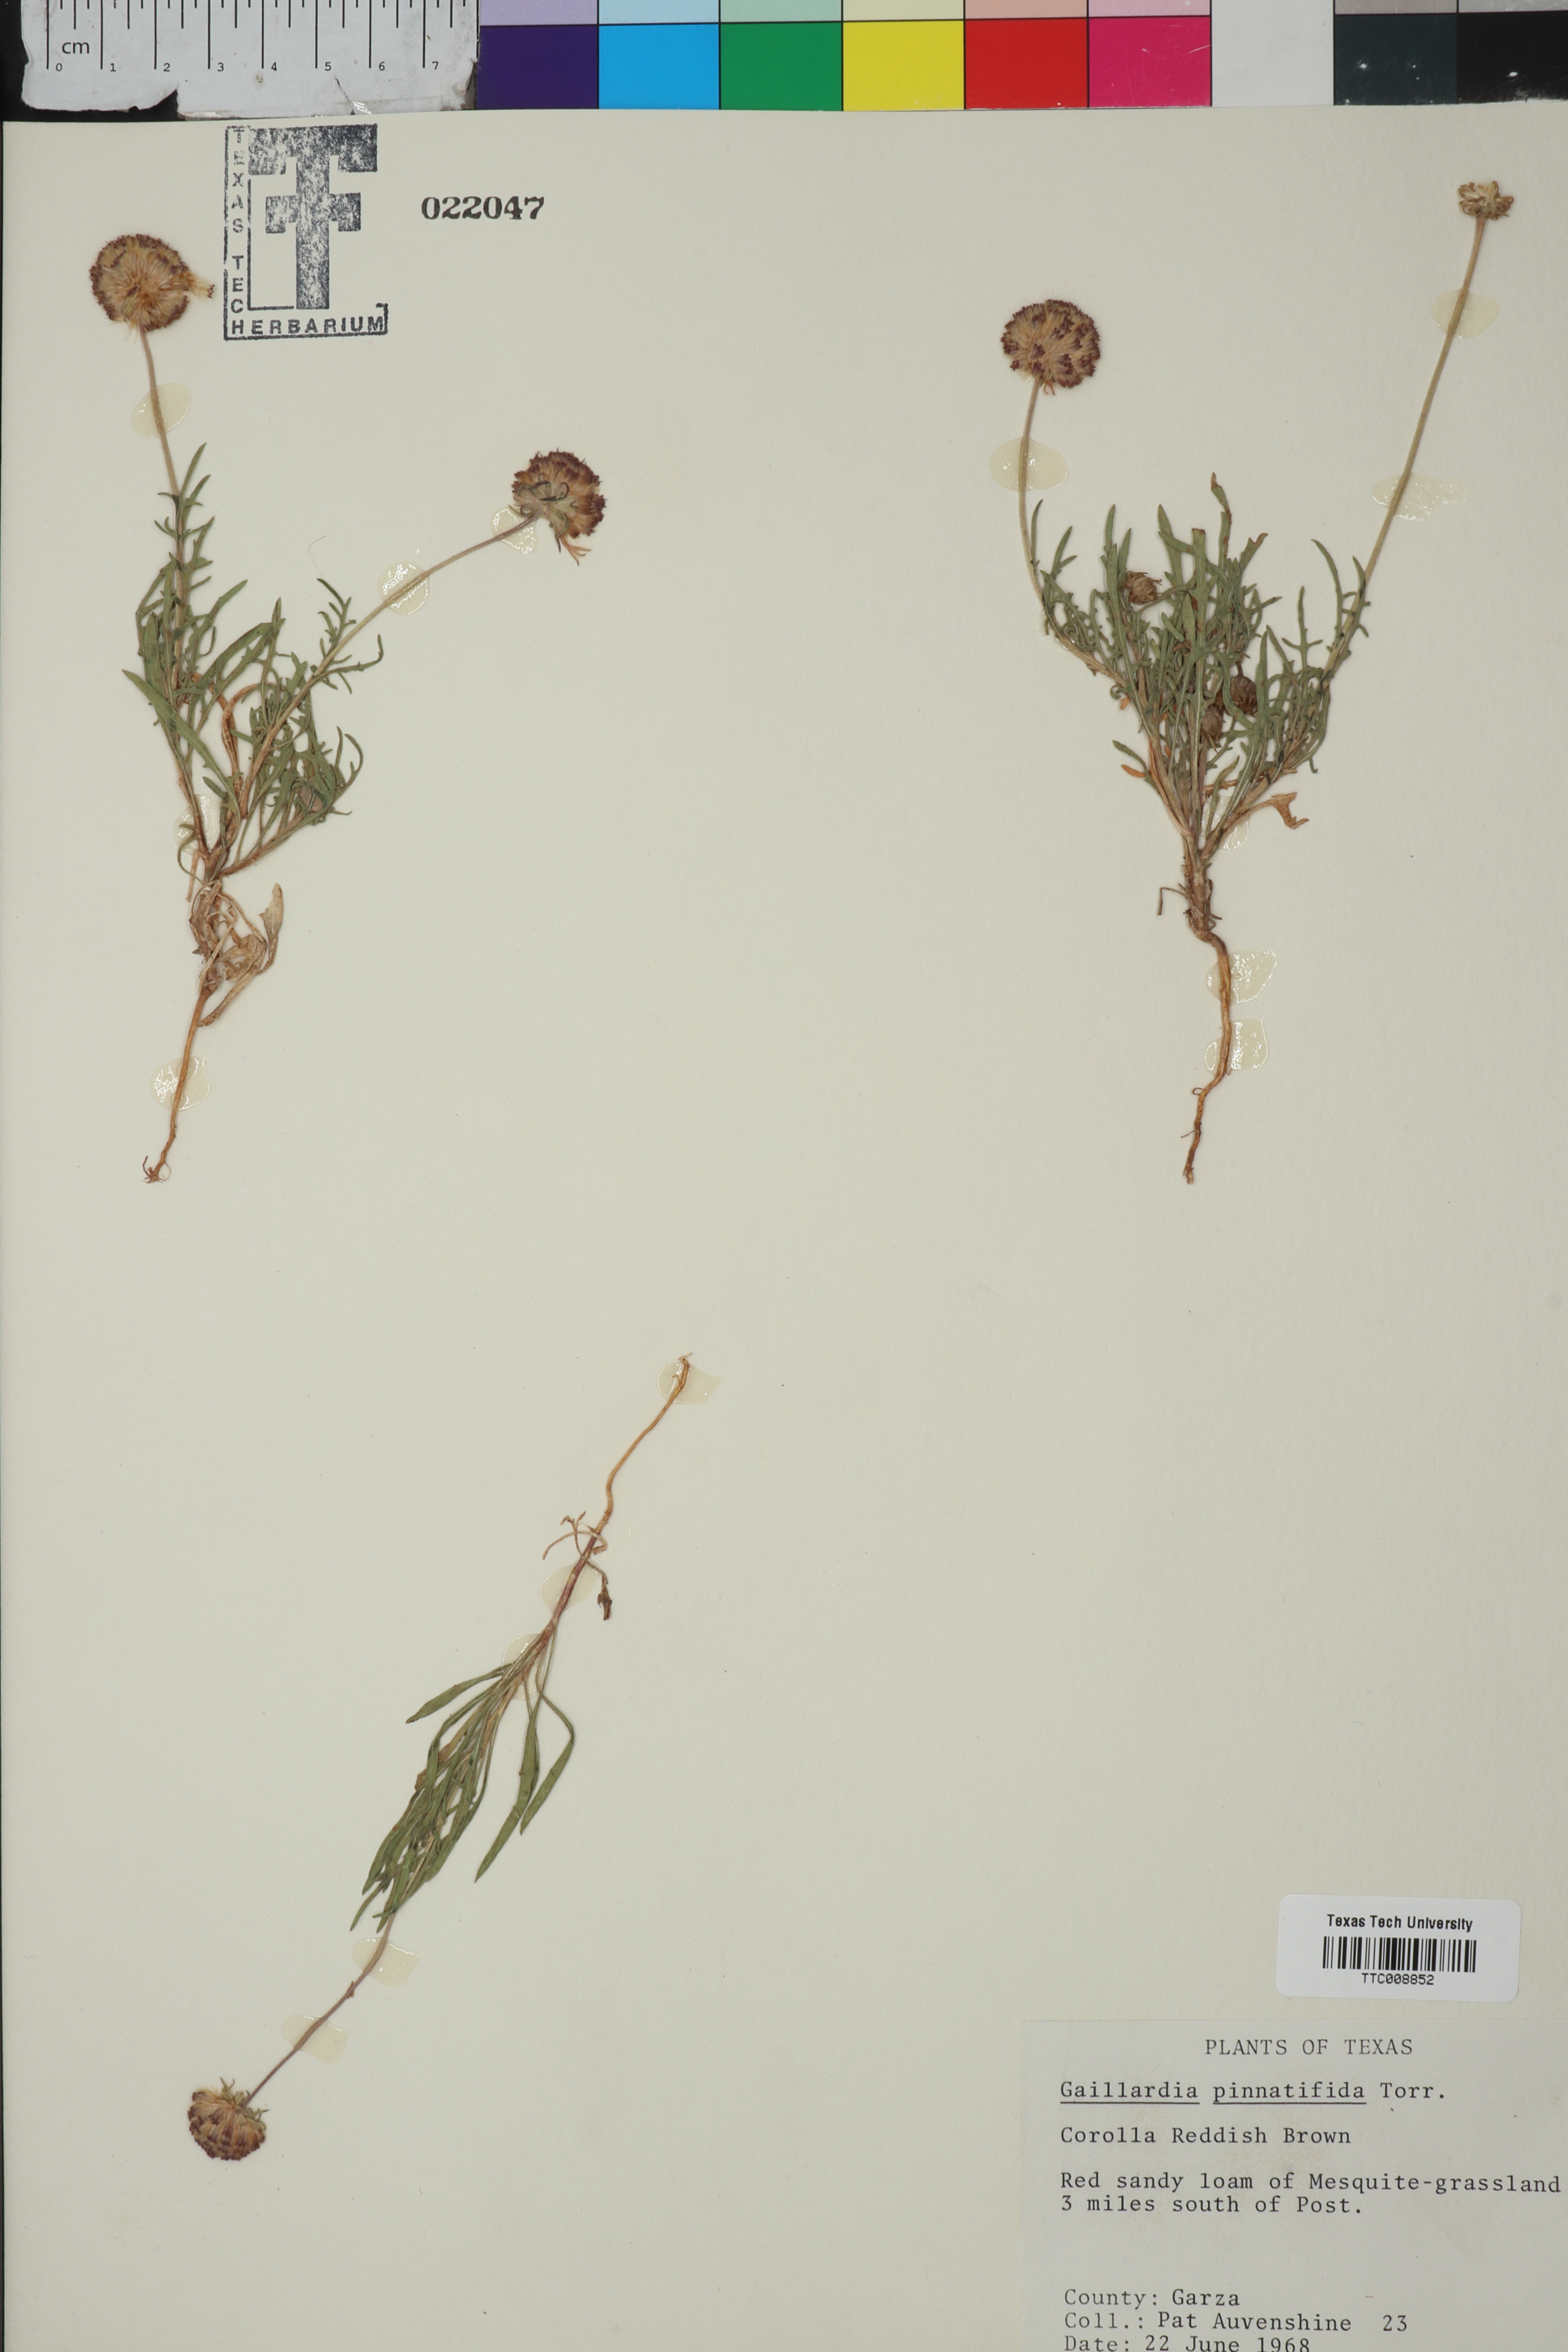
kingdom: Plantae
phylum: Tracheophyta
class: Magnoliopsida
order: Asterales
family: Asteraceae
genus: Gaillardia
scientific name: Gaillardia pinnatifida
